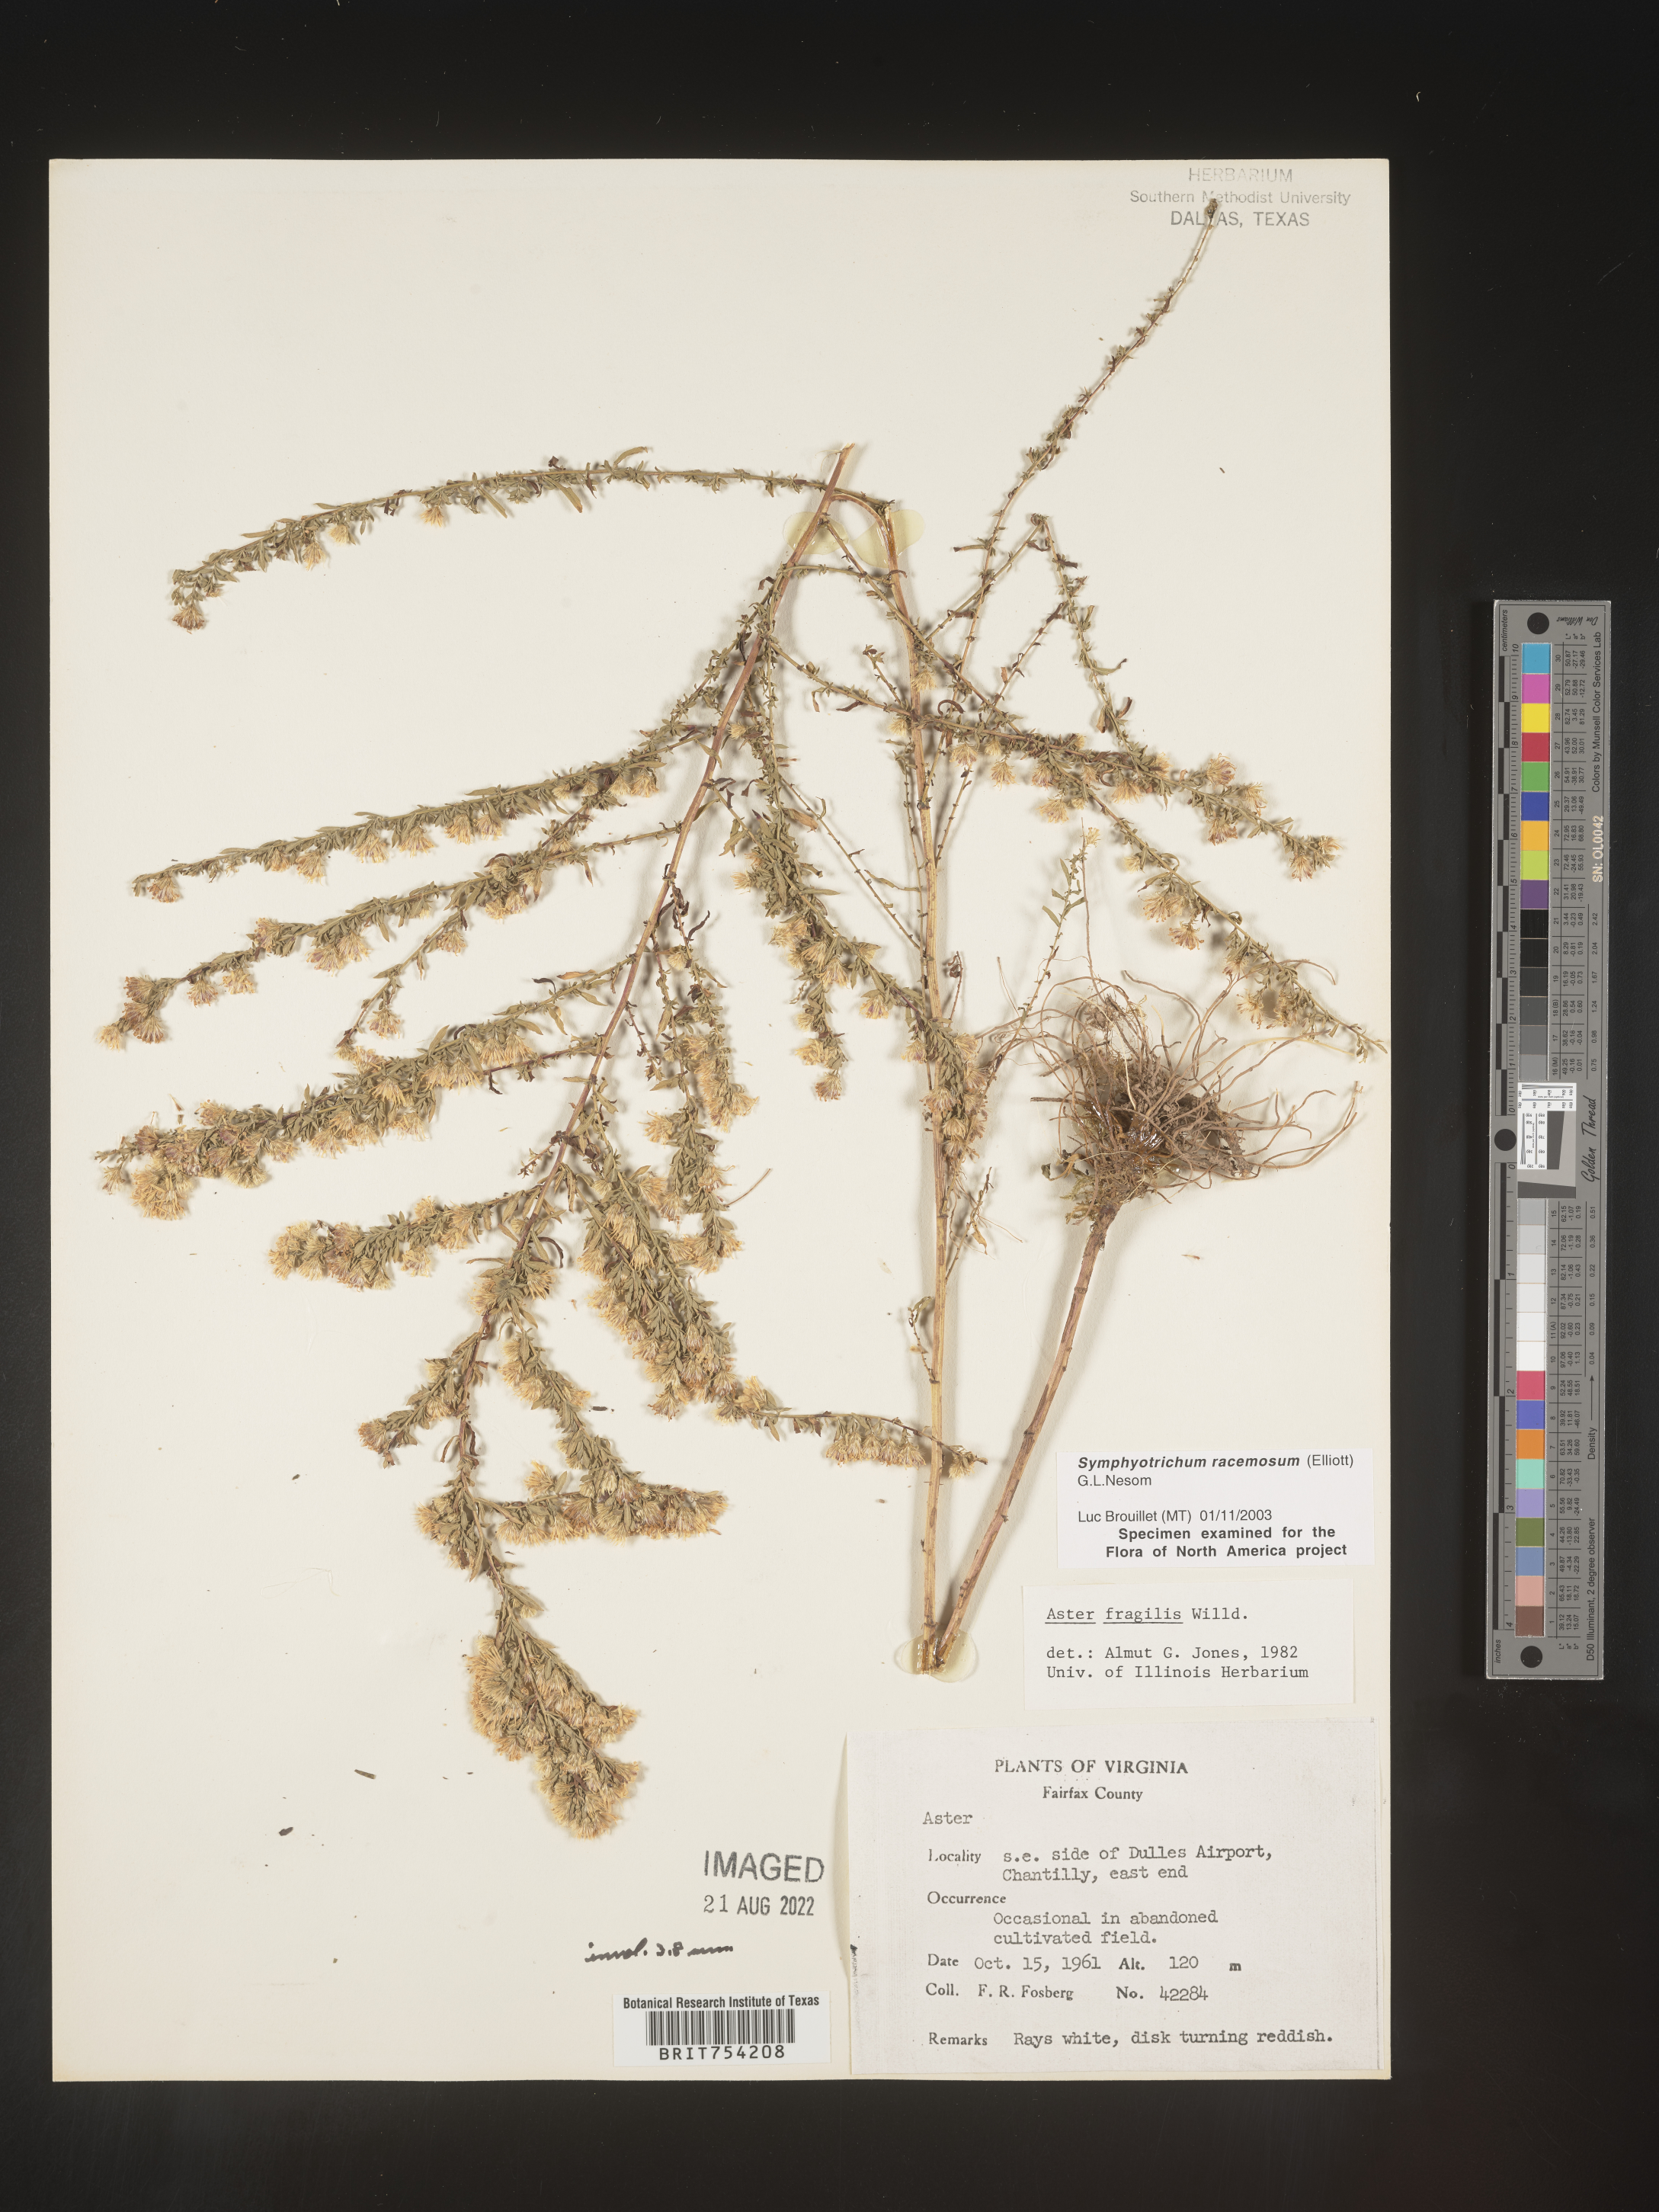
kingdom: Plantae
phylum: Tracheophyta
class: Magnoliopsida
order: Asterales
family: Asteraceae
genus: Symphyotrichum
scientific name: Symphyotrichum racemosum
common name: Small white aster
